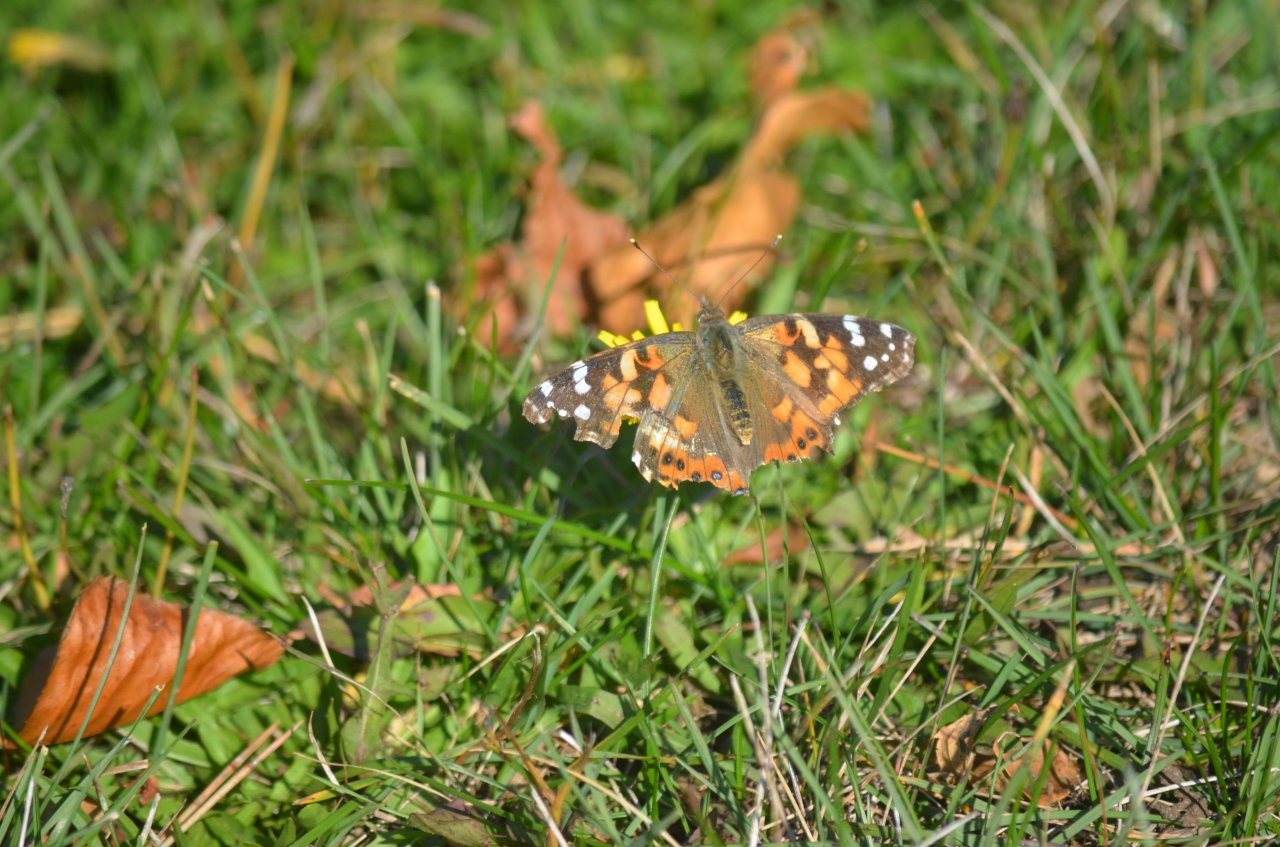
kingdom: Animalia
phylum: Arthropoda
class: Insecta
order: Lepidoptera
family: Nymphalidae
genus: Vanessa
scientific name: Vanessa cardui
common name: Painted Lady
